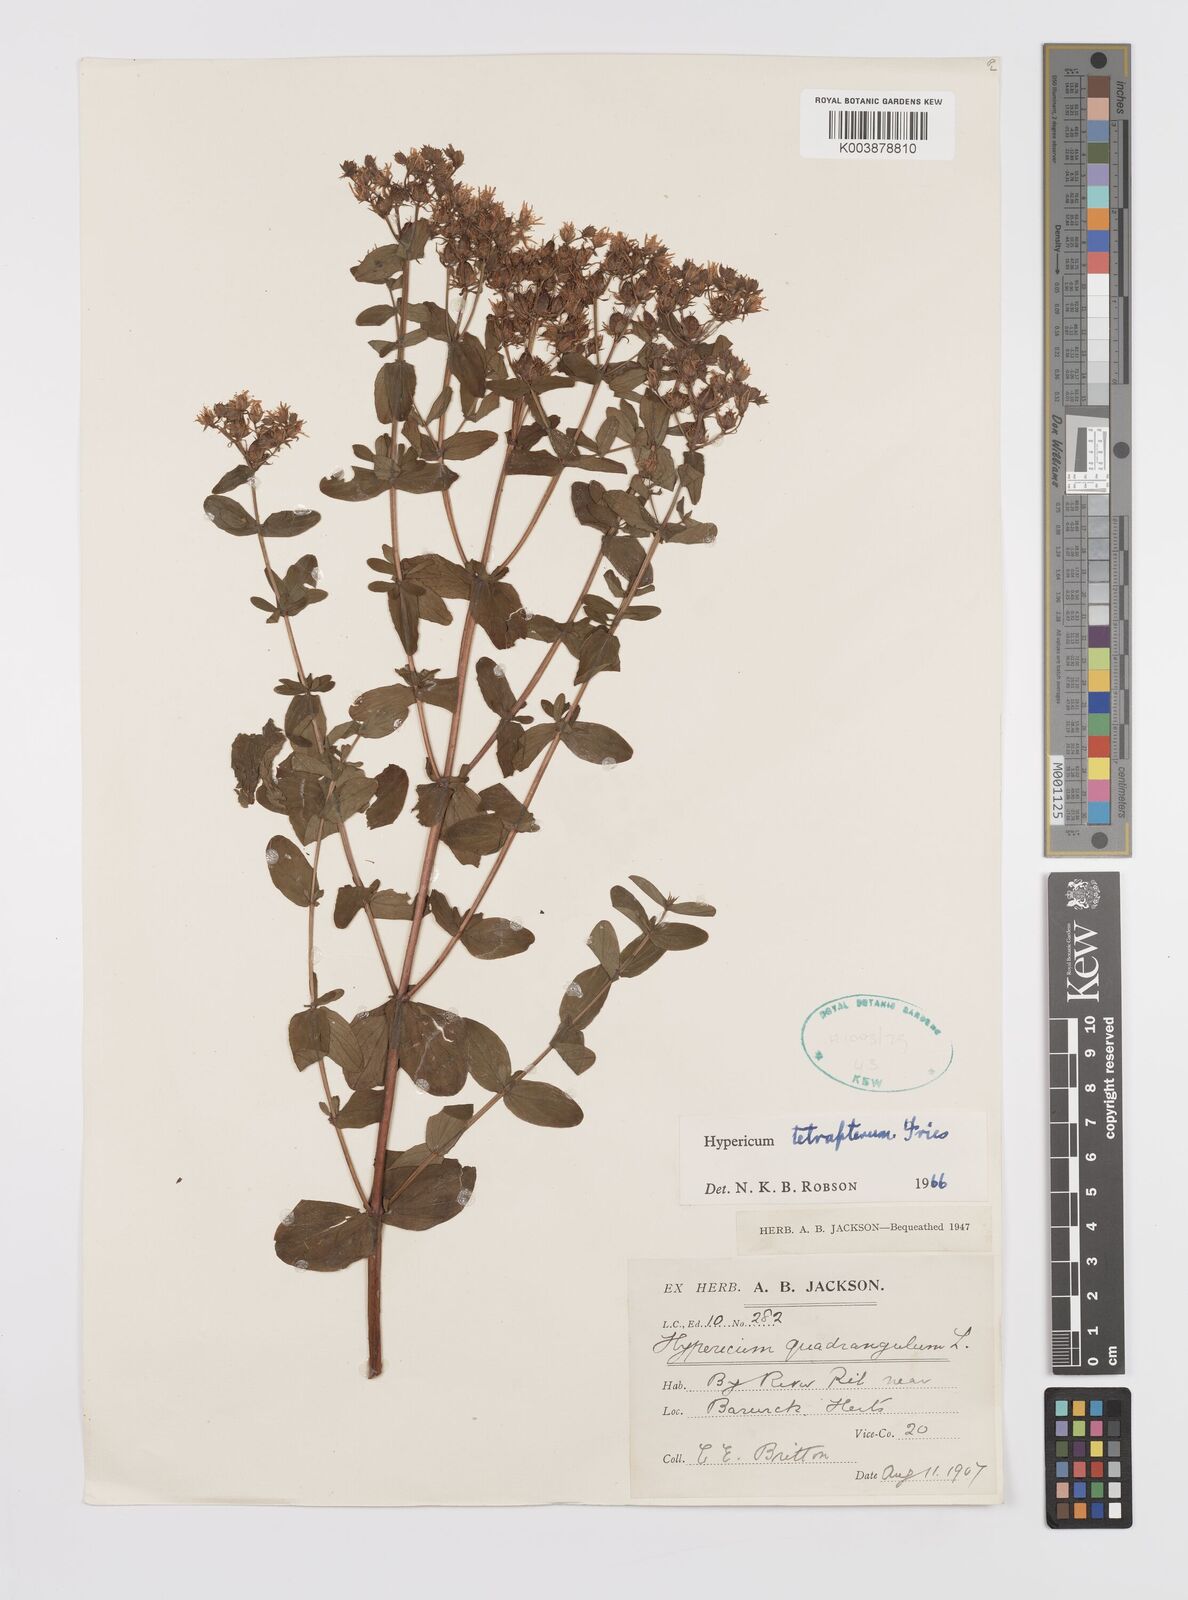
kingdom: Plantae
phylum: Tracheophyta
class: Magnoliopsida
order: Malpighiales
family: Hypericaceae
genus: Hypericum
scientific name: Hypericum tetrapterum
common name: Square-stalked st. john's-wort
